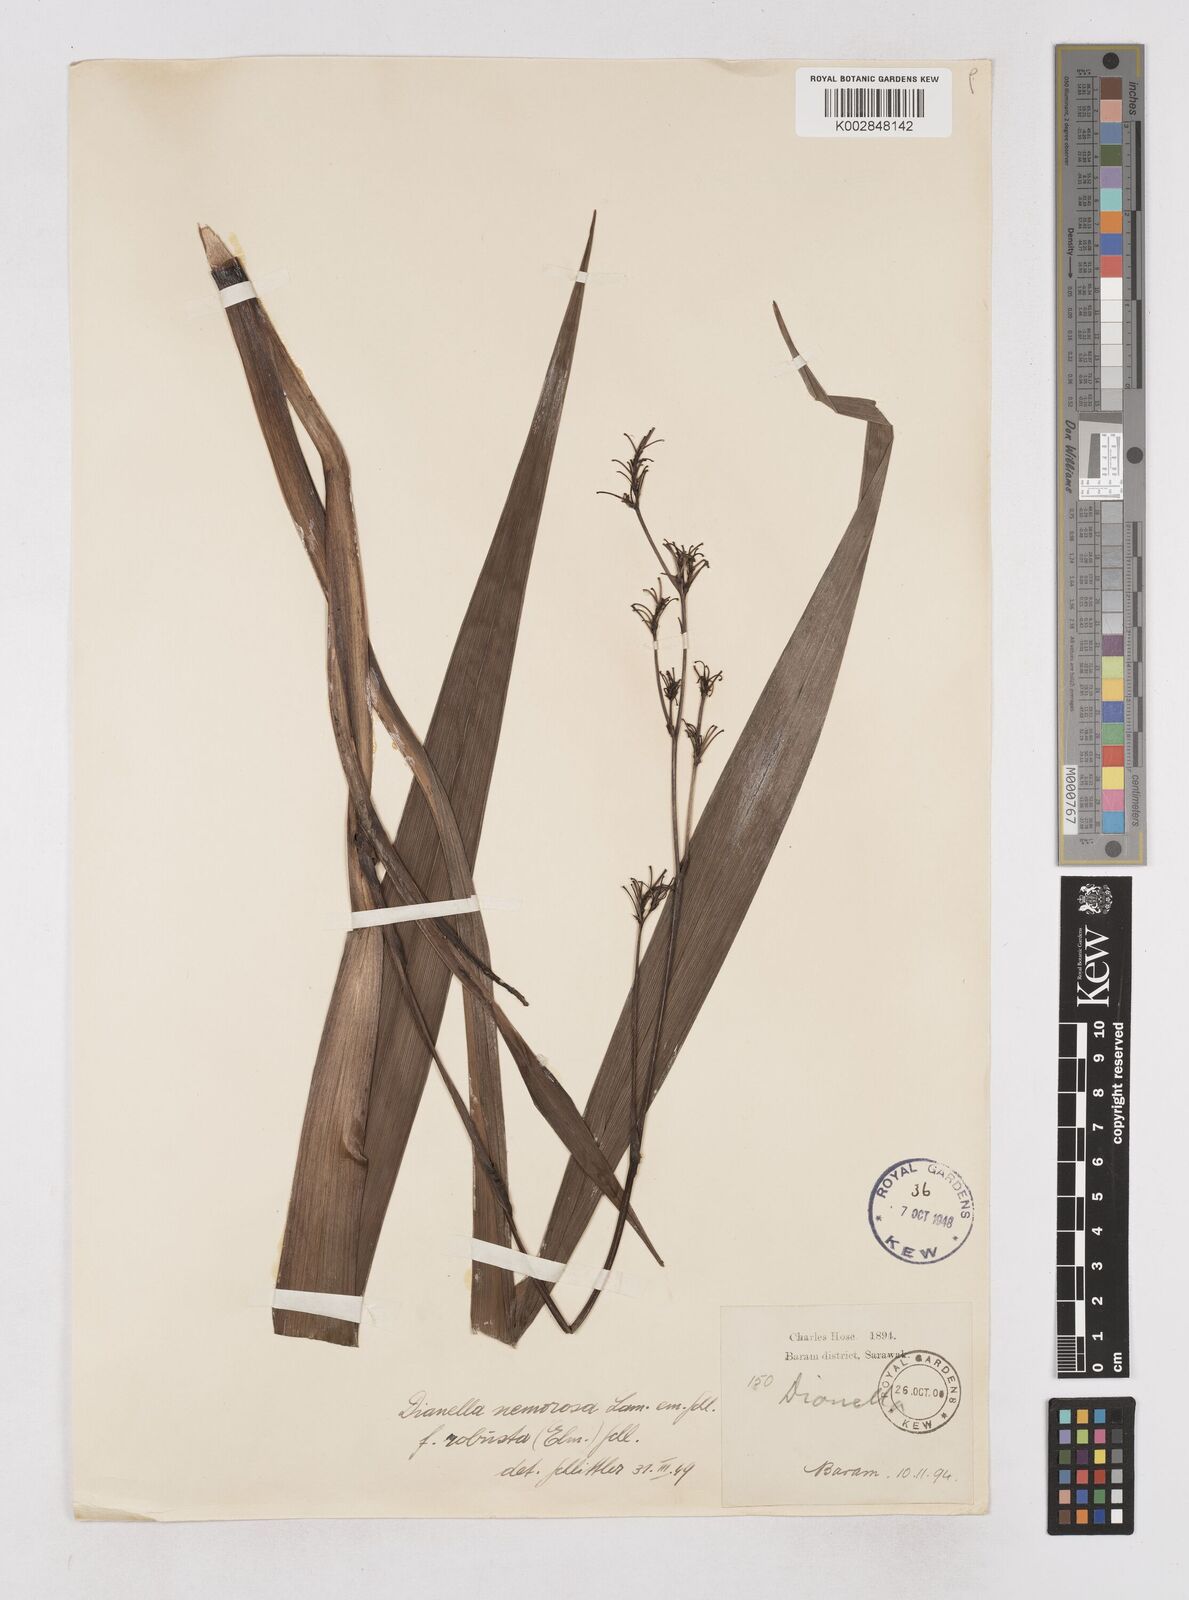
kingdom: Plantae
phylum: Tracheophyta
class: Liliopsida
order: Asparagales
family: Asphodelaceae
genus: Dianella
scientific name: Dianella ensifolia
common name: New zealand lilyplant
